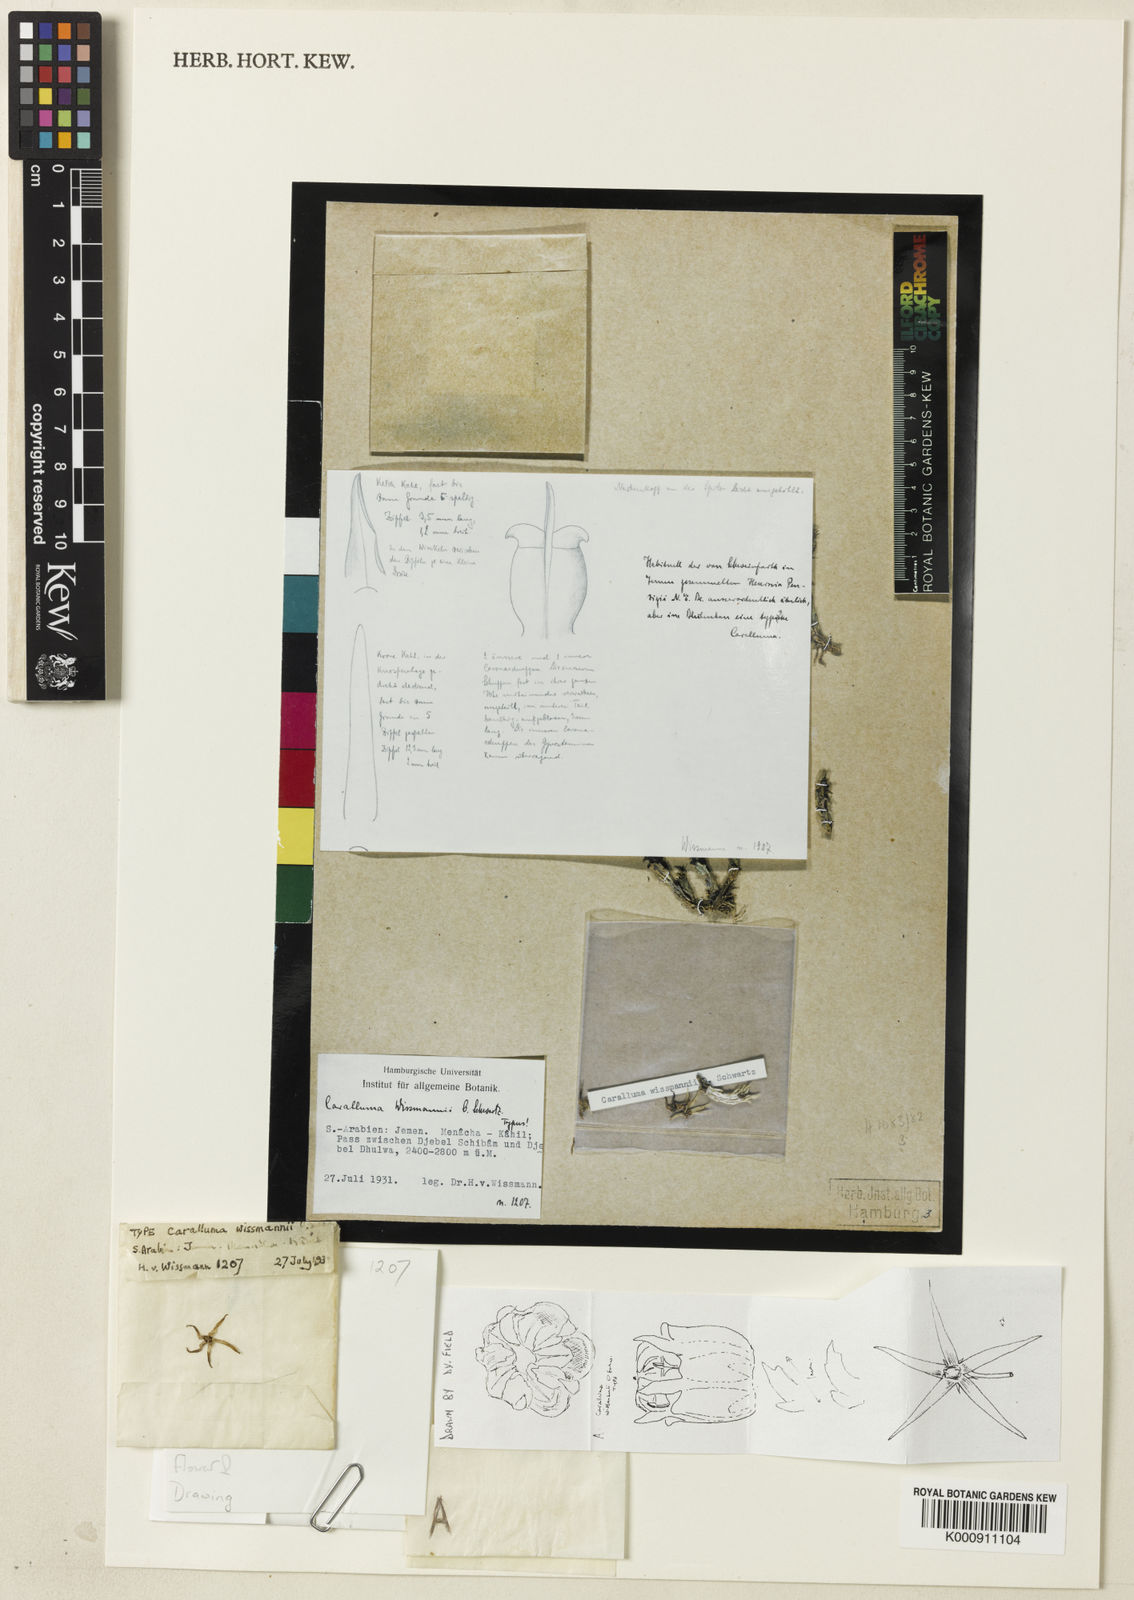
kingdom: Plantae
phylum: Tracheophyta
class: Magnoliopsida
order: Gentianales
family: Apocynaceae
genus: Ceropegia
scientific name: Ceropegia wissmannii
